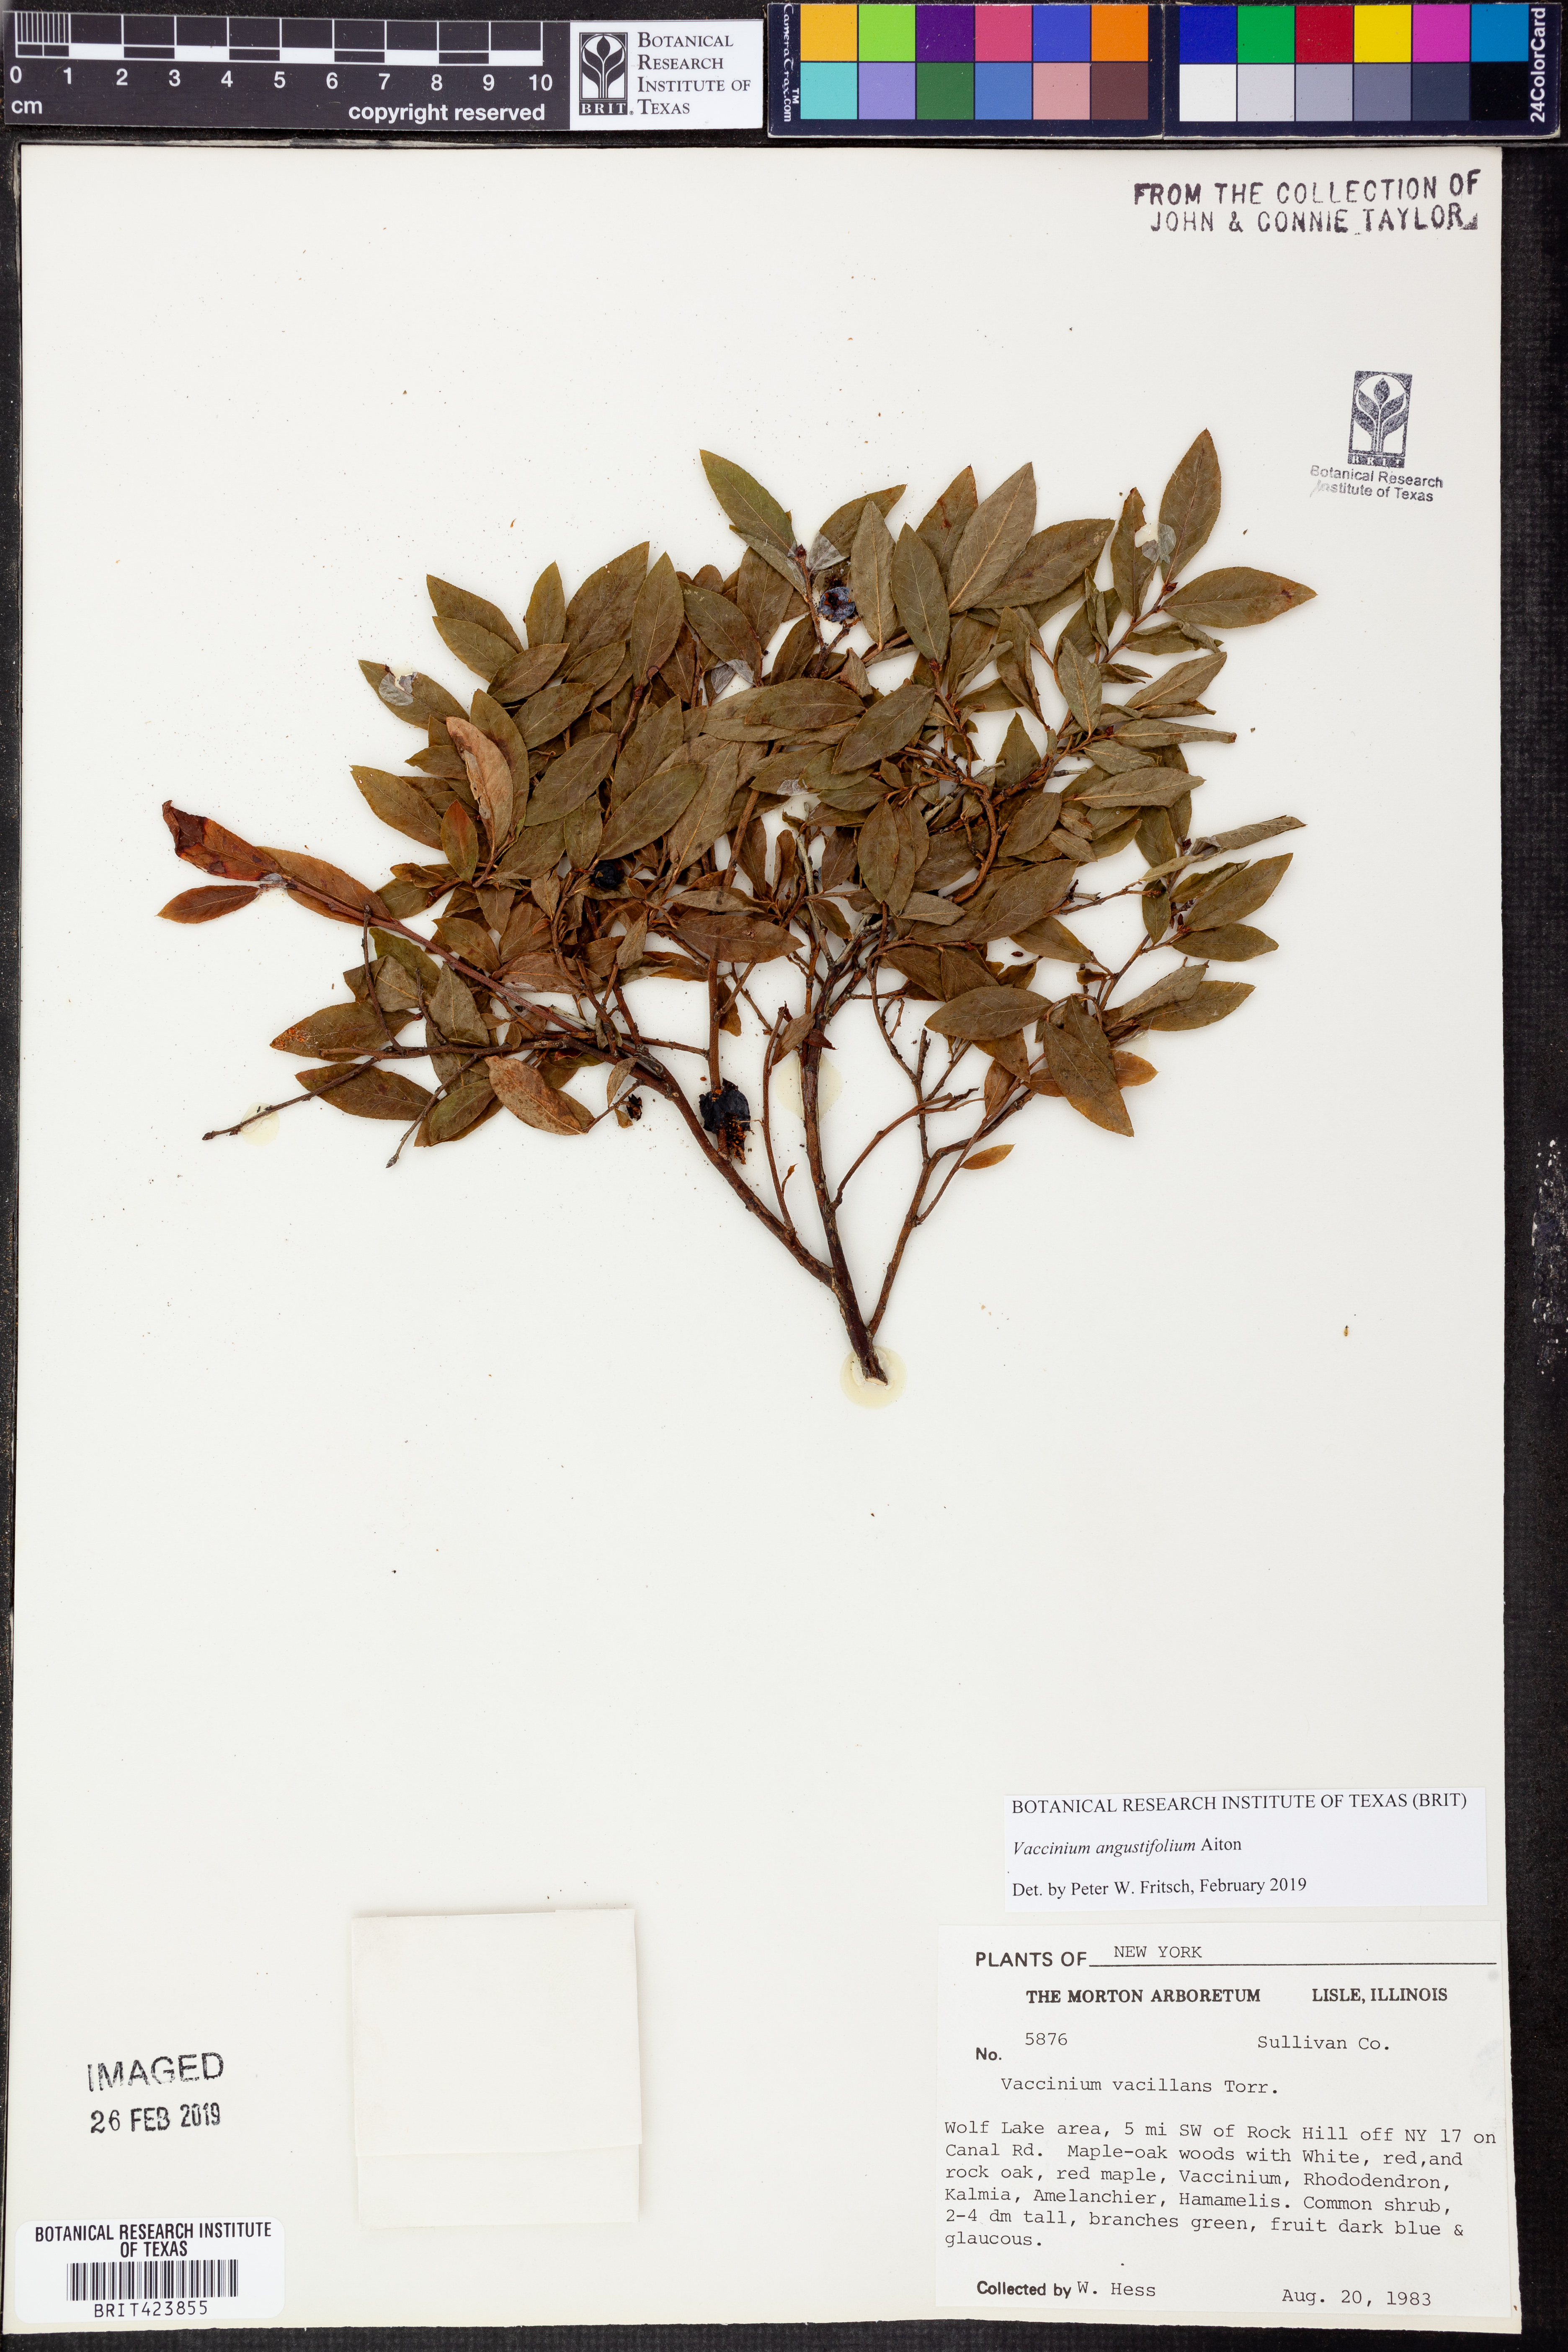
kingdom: Plantae
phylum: Tracheophyta
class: Magnoliopsida
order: Ericales
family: Ericaceae
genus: Vaccinium
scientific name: Vaccinium angustifolium
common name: Early lowbush blueberry
